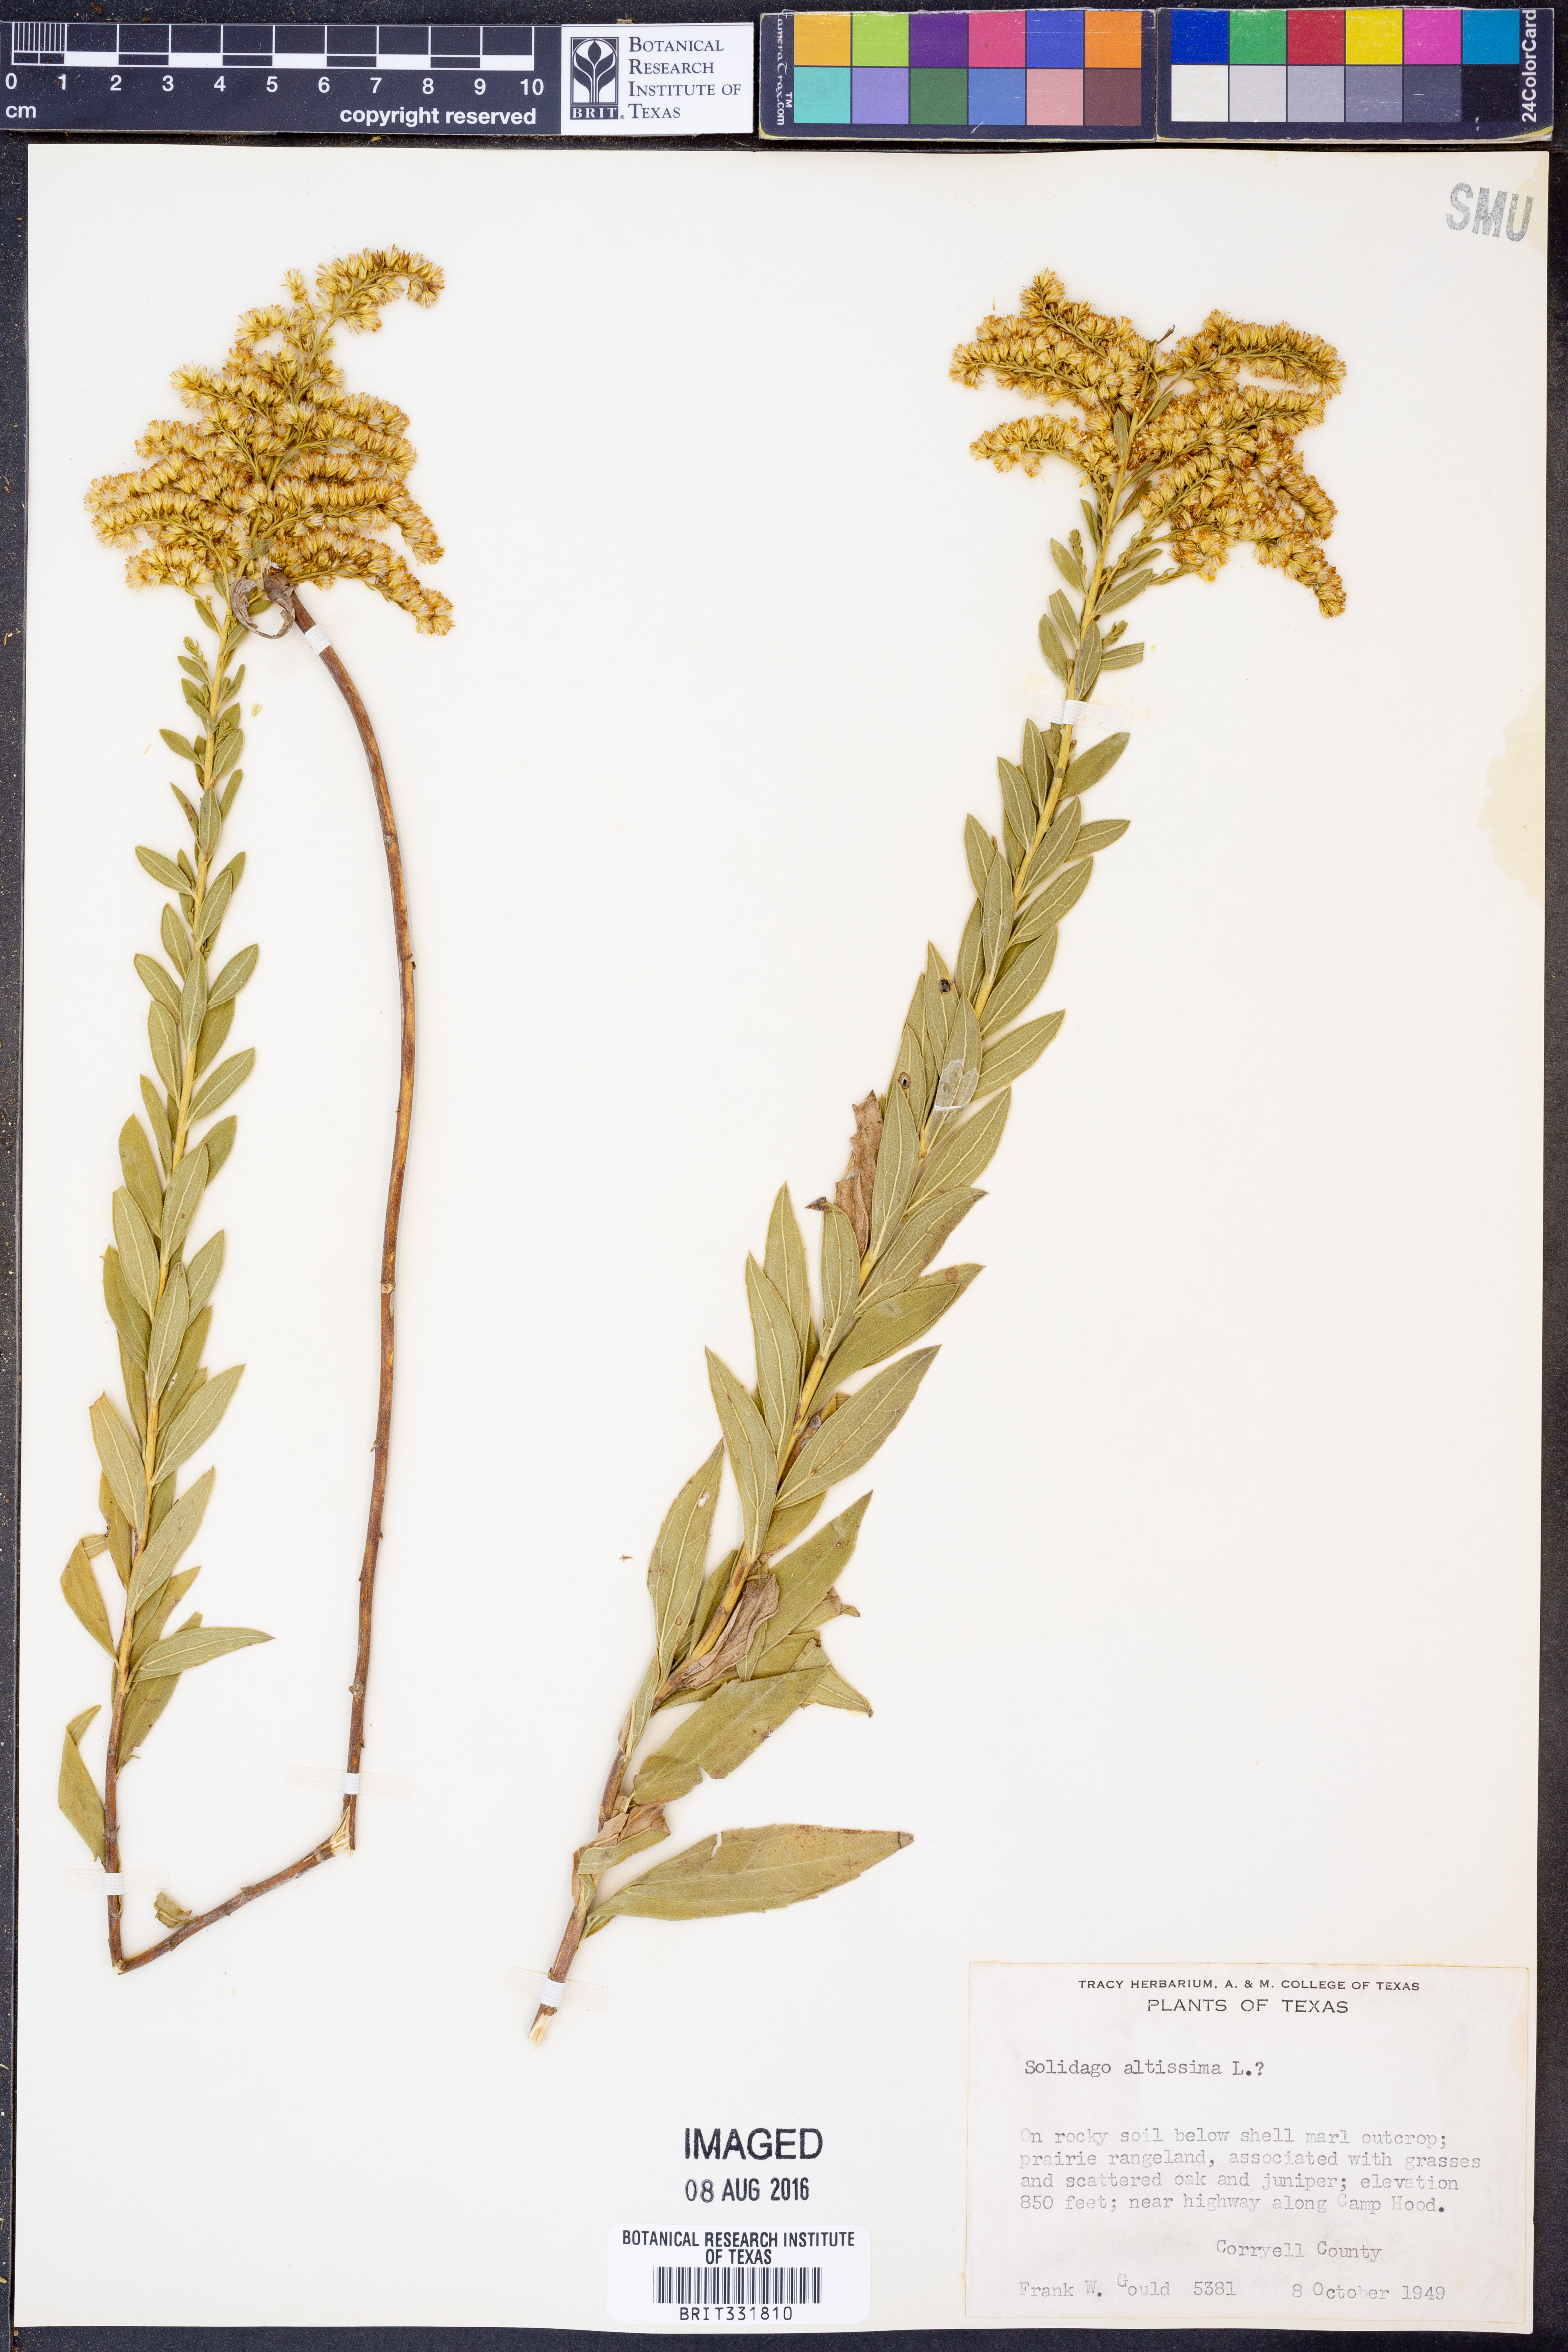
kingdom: Plantae
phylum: Tracheophyta
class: Magnoliopsida
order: Asterales
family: Asteraceae
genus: Solidago
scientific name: Solidago altissima
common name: Late goldenrod
